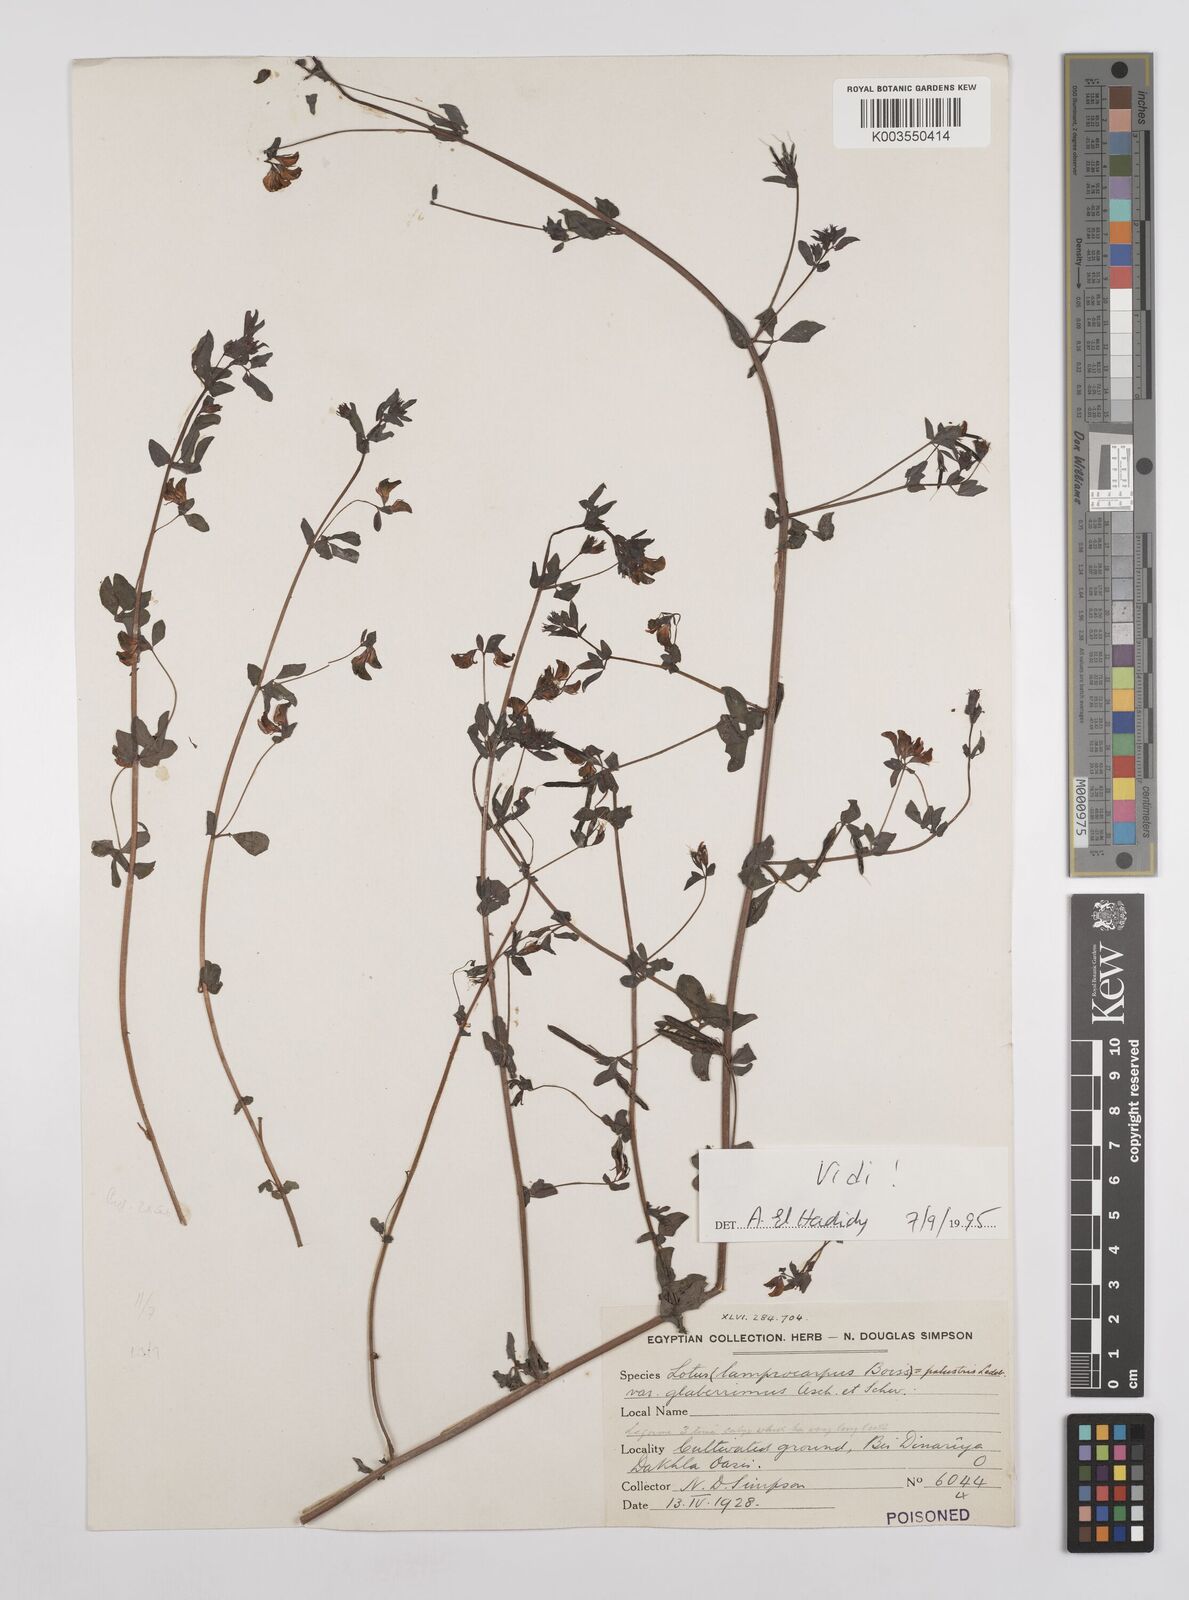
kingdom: Plantae
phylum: Tracheophyta
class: Magnoliopsida
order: Fabales
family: Fabaceae
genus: Lotus
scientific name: Lotus
